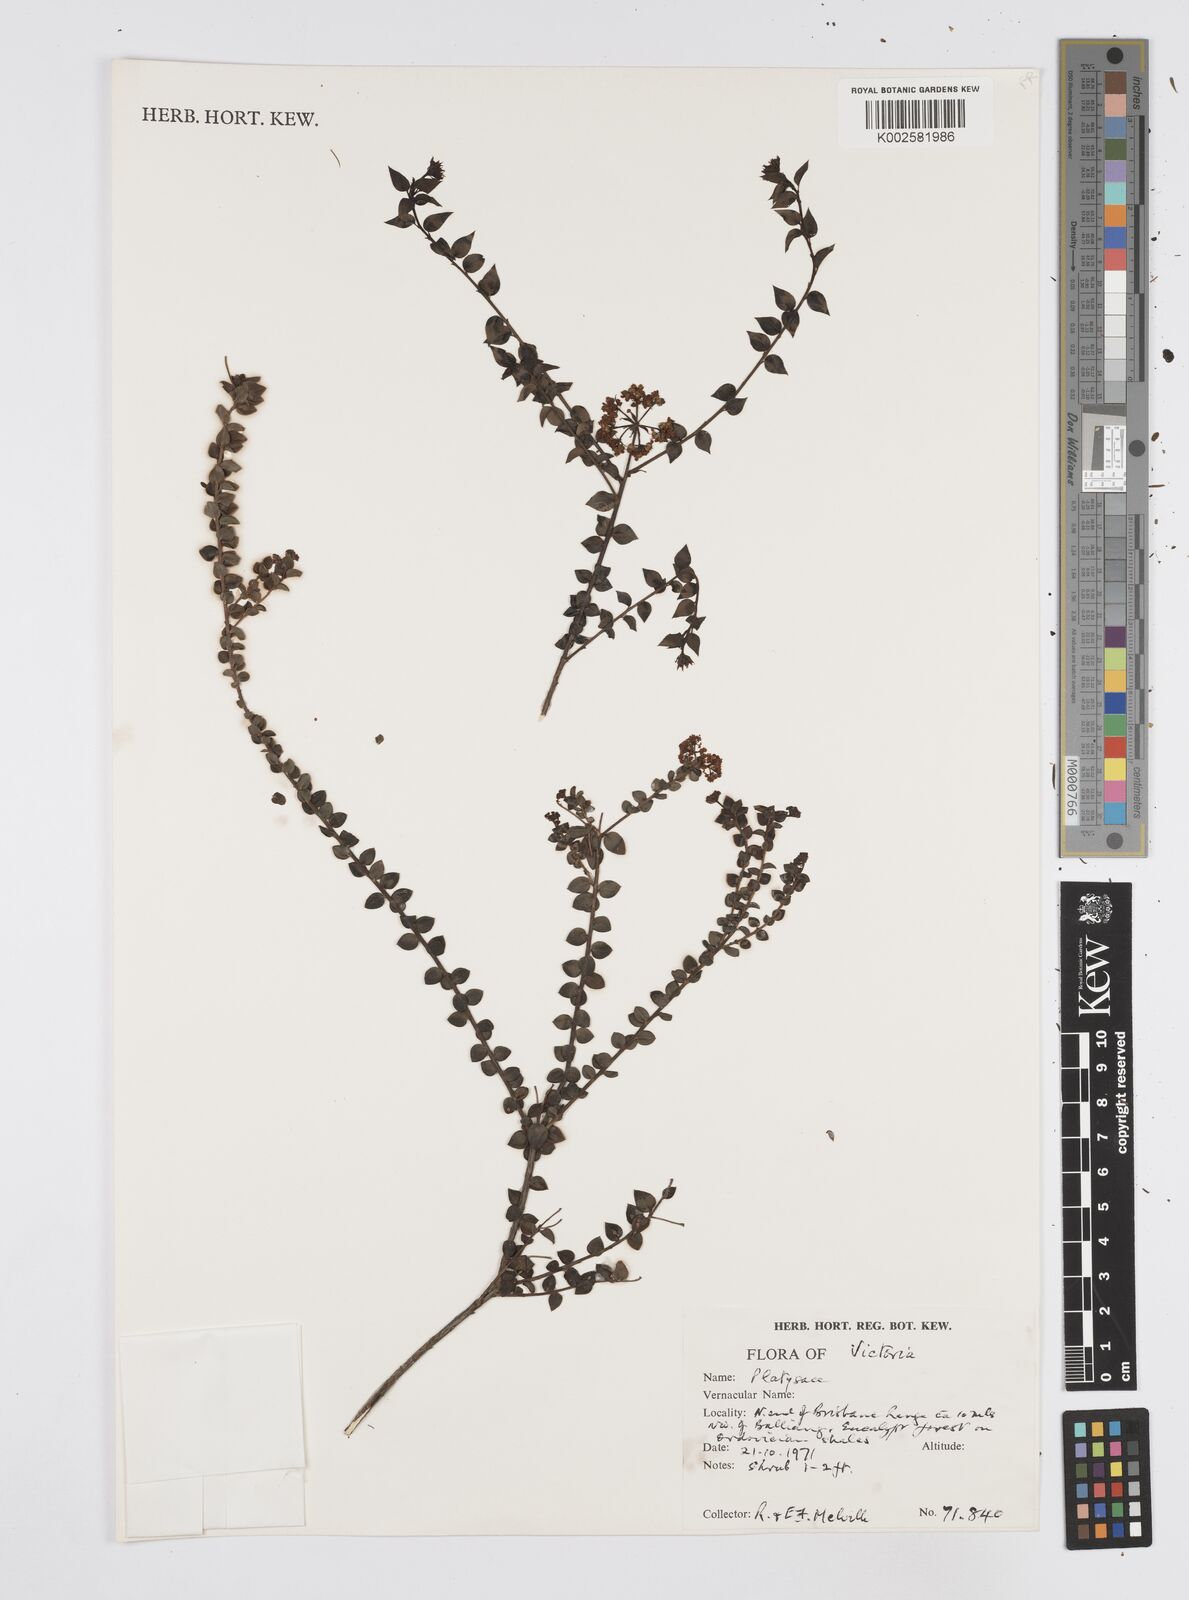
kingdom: Plantae
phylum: Tracheophyta
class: Magnoliopsida
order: Apiales
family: Apiaceae
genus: Platysace
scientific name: Platysace
